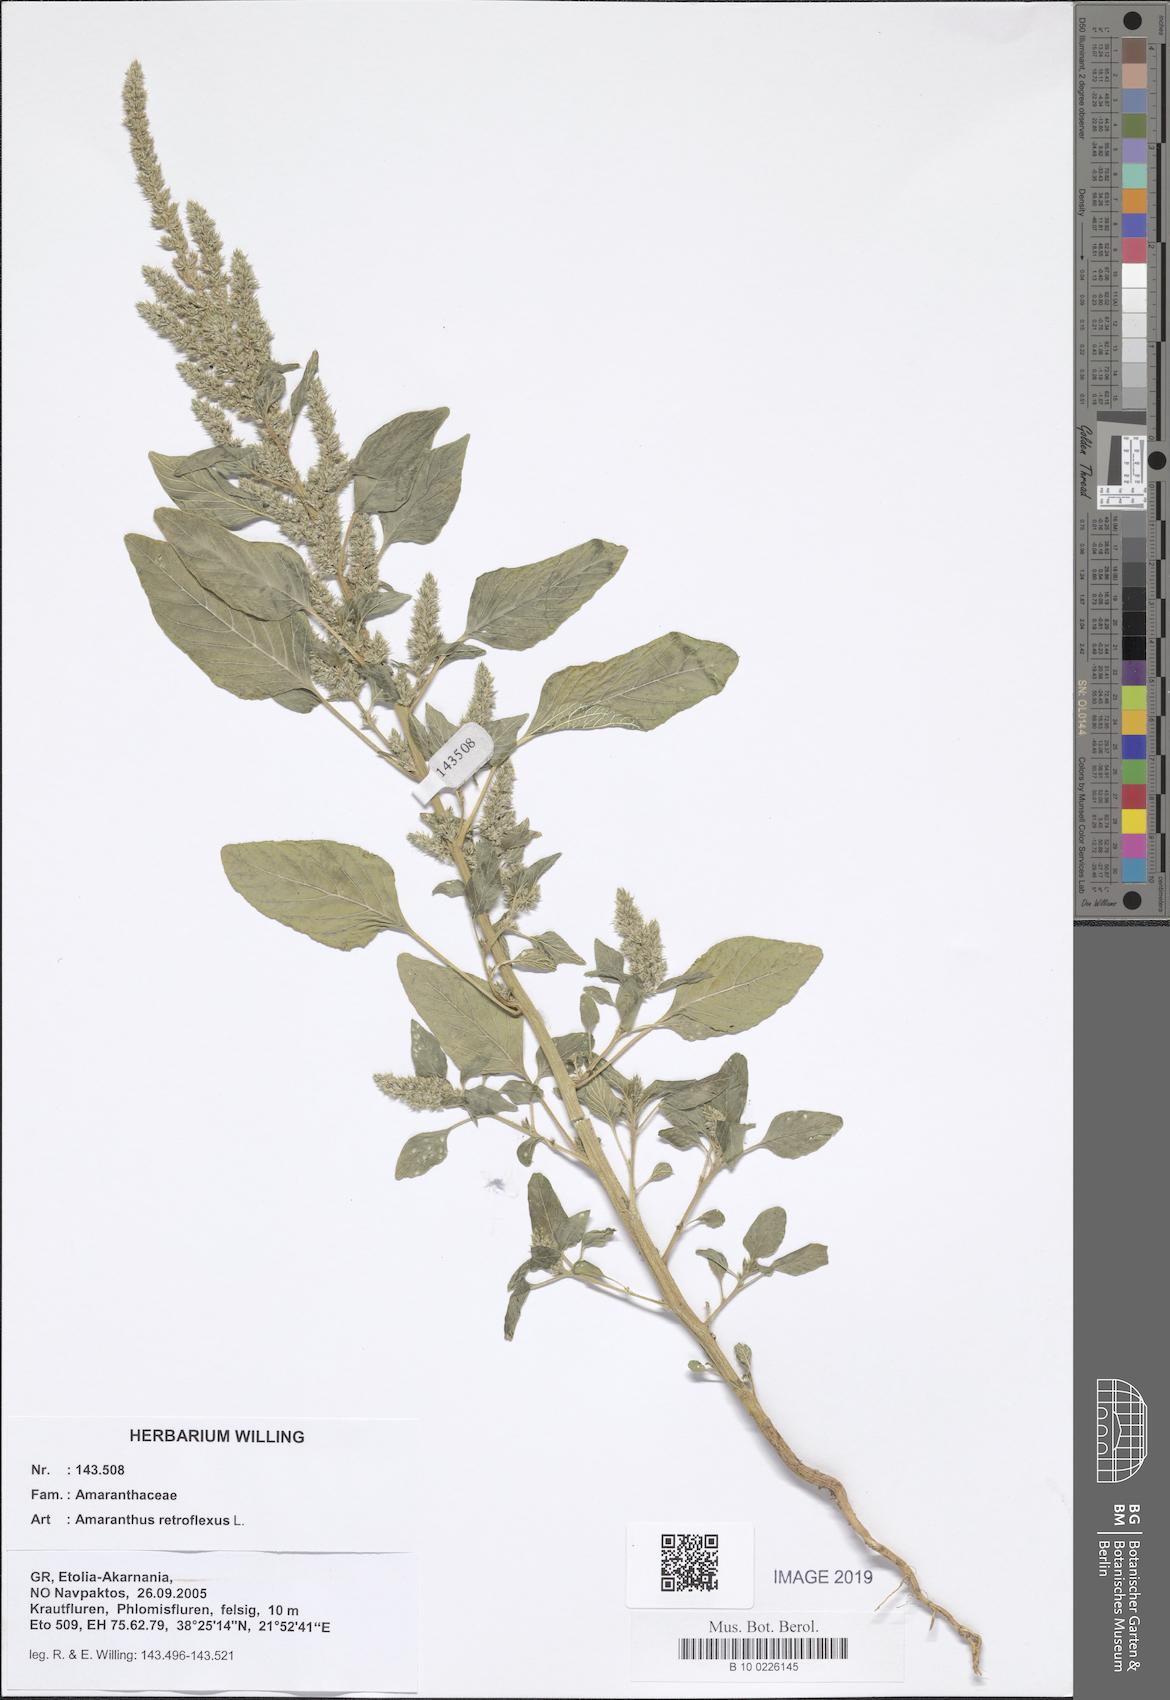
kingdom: Plantae
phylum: Tracheophyta
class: Magnoliopsida
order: Caryophyllales
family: Amaranthaceae
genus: Amaranthus
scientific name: Amaranthus retroflexus
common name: Redroot amaranth
